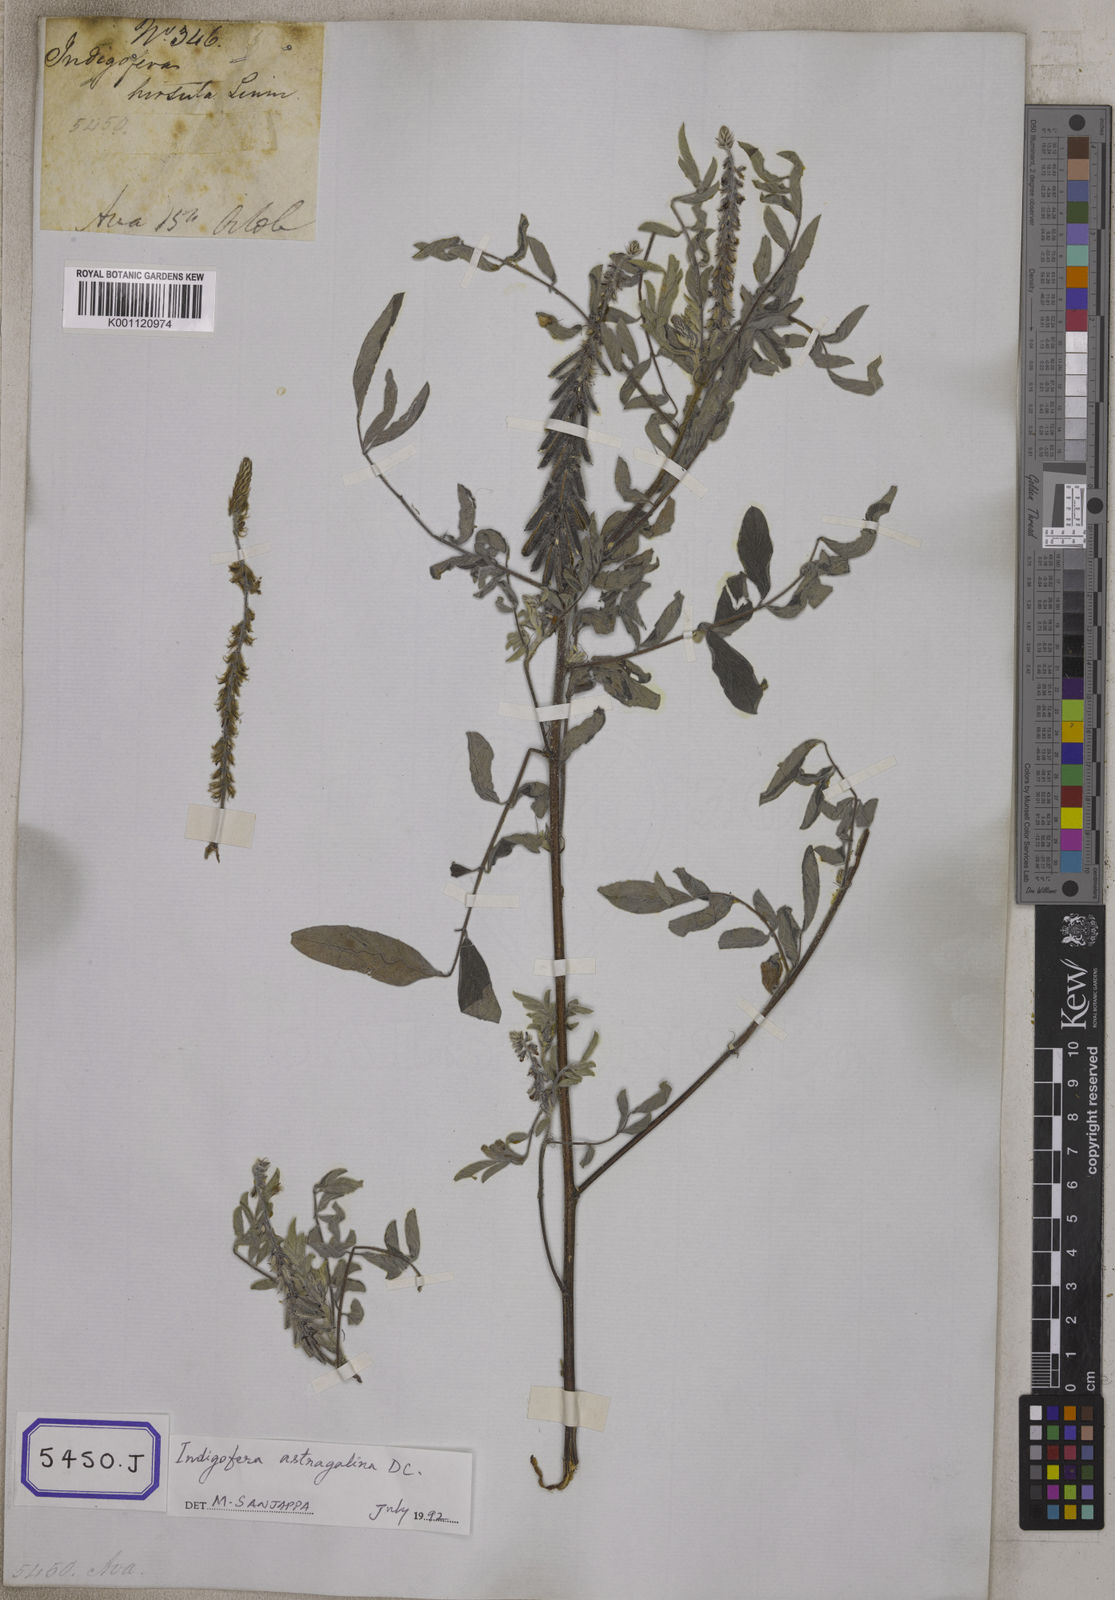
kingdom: Plantae
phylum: Tracheophyta
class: Magnoliopsida
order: Fabales
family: Fabaceae
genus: Indigofera
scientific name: Indigofera hirsuta
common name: Hairy indigo
